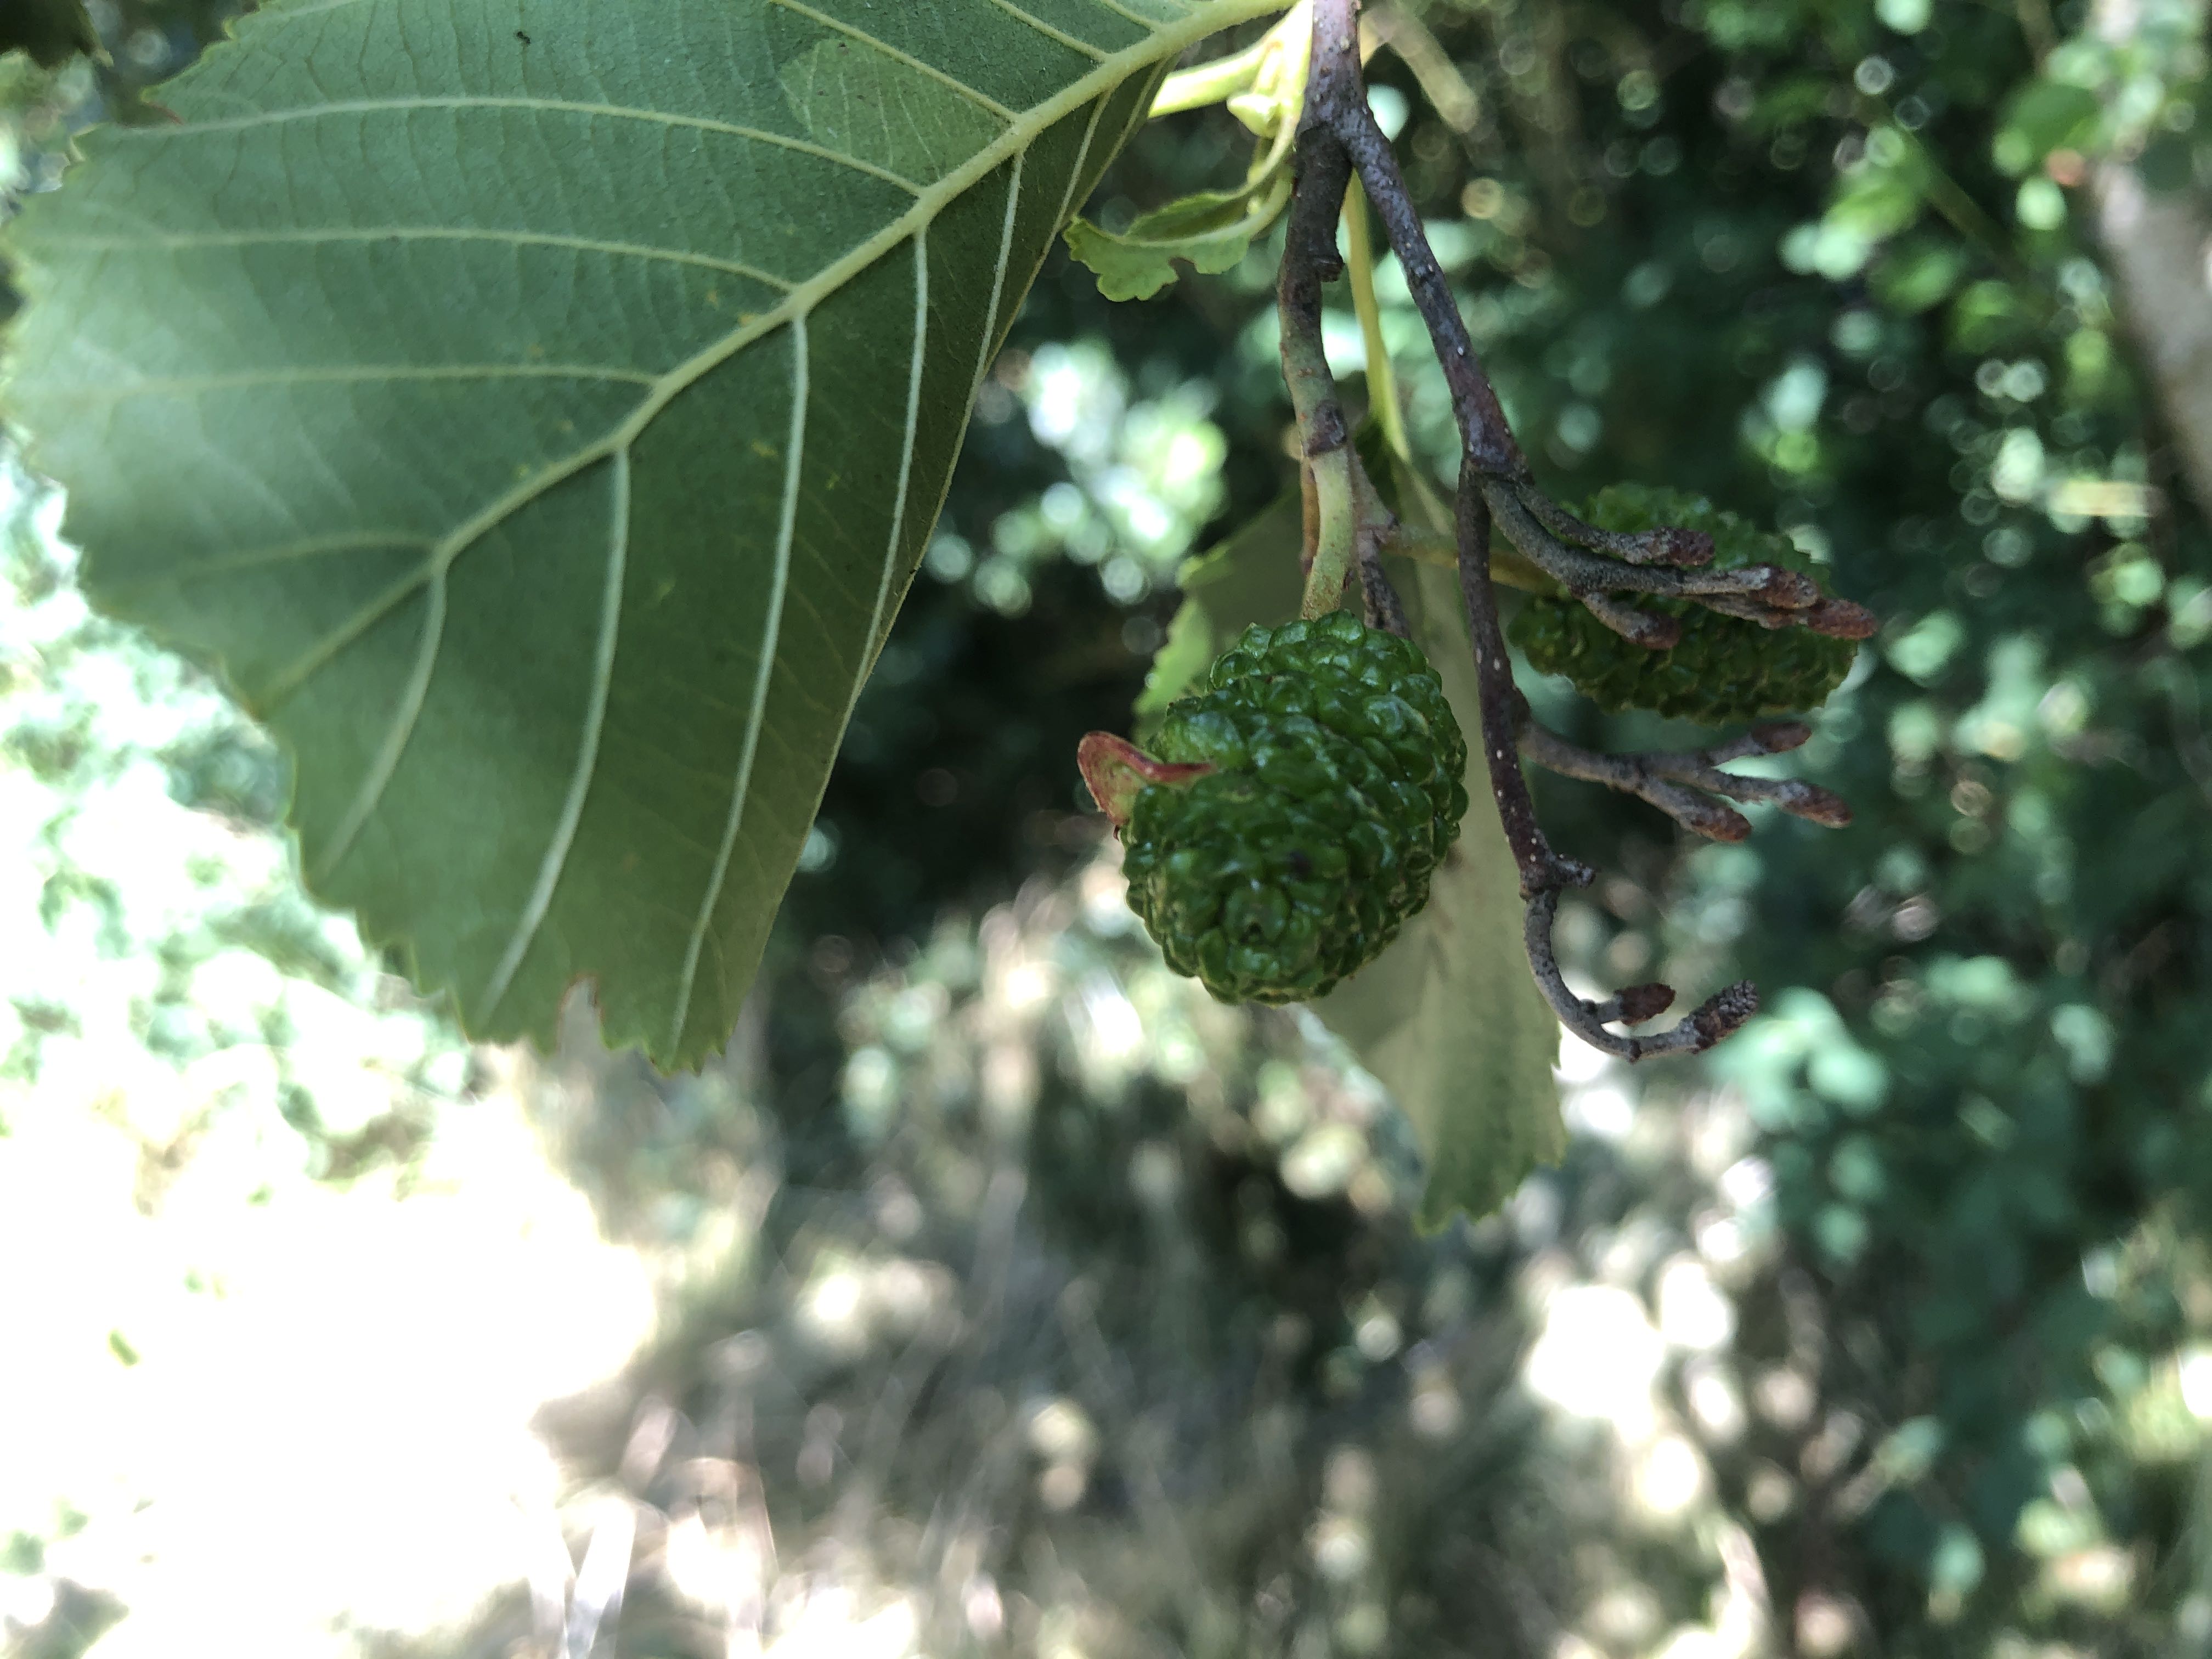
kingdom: Fungi
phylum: Ascomycota
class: Taphrinomycetes
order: Taphrinales
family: Taphrinaceae
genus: Taphrina
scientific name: Taphrina alni
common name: Alder tongue
